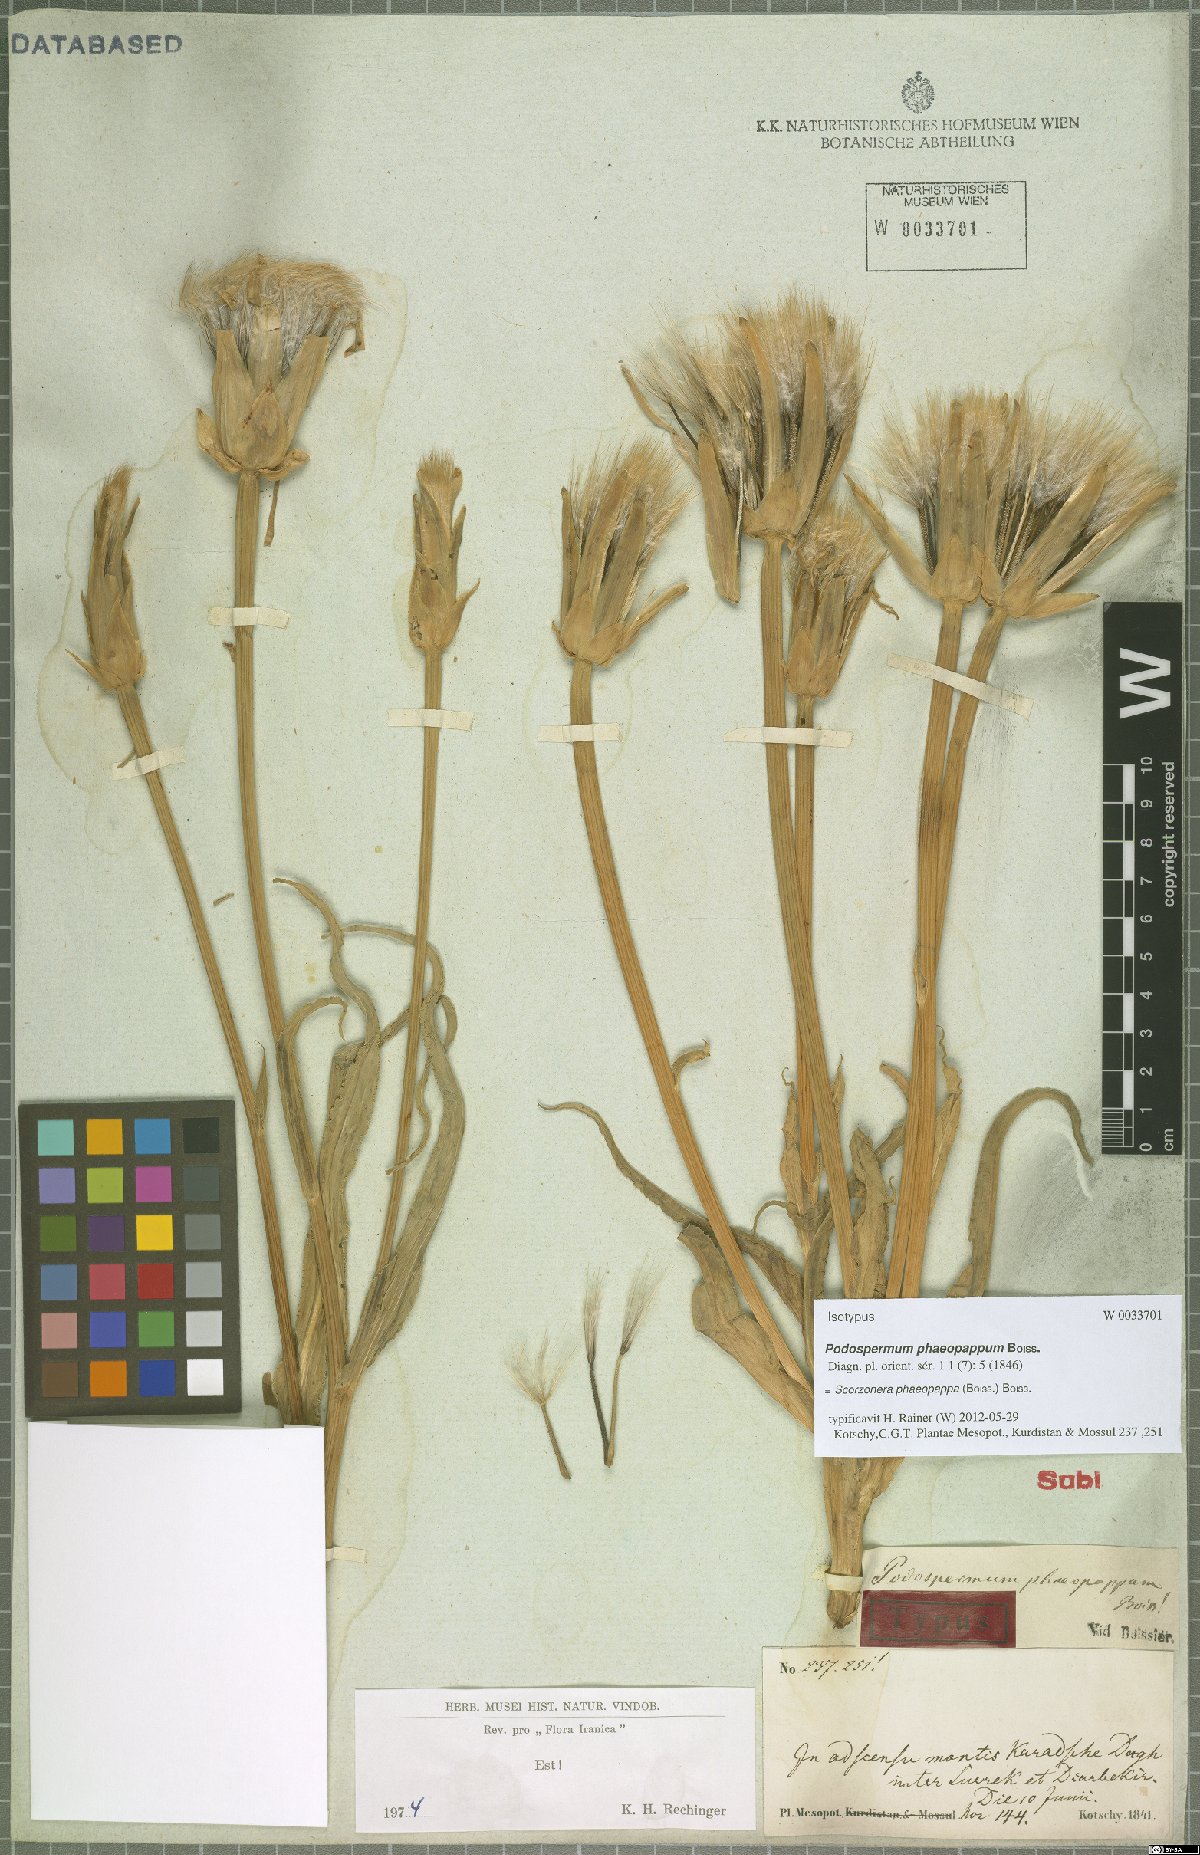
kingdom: Plantae
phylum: Tracheophyta
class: Magnoliopsida
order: Asterales
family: Asteraceae
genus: Pseudopodospermum
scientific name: Pseudopodospermum phaeopappum
